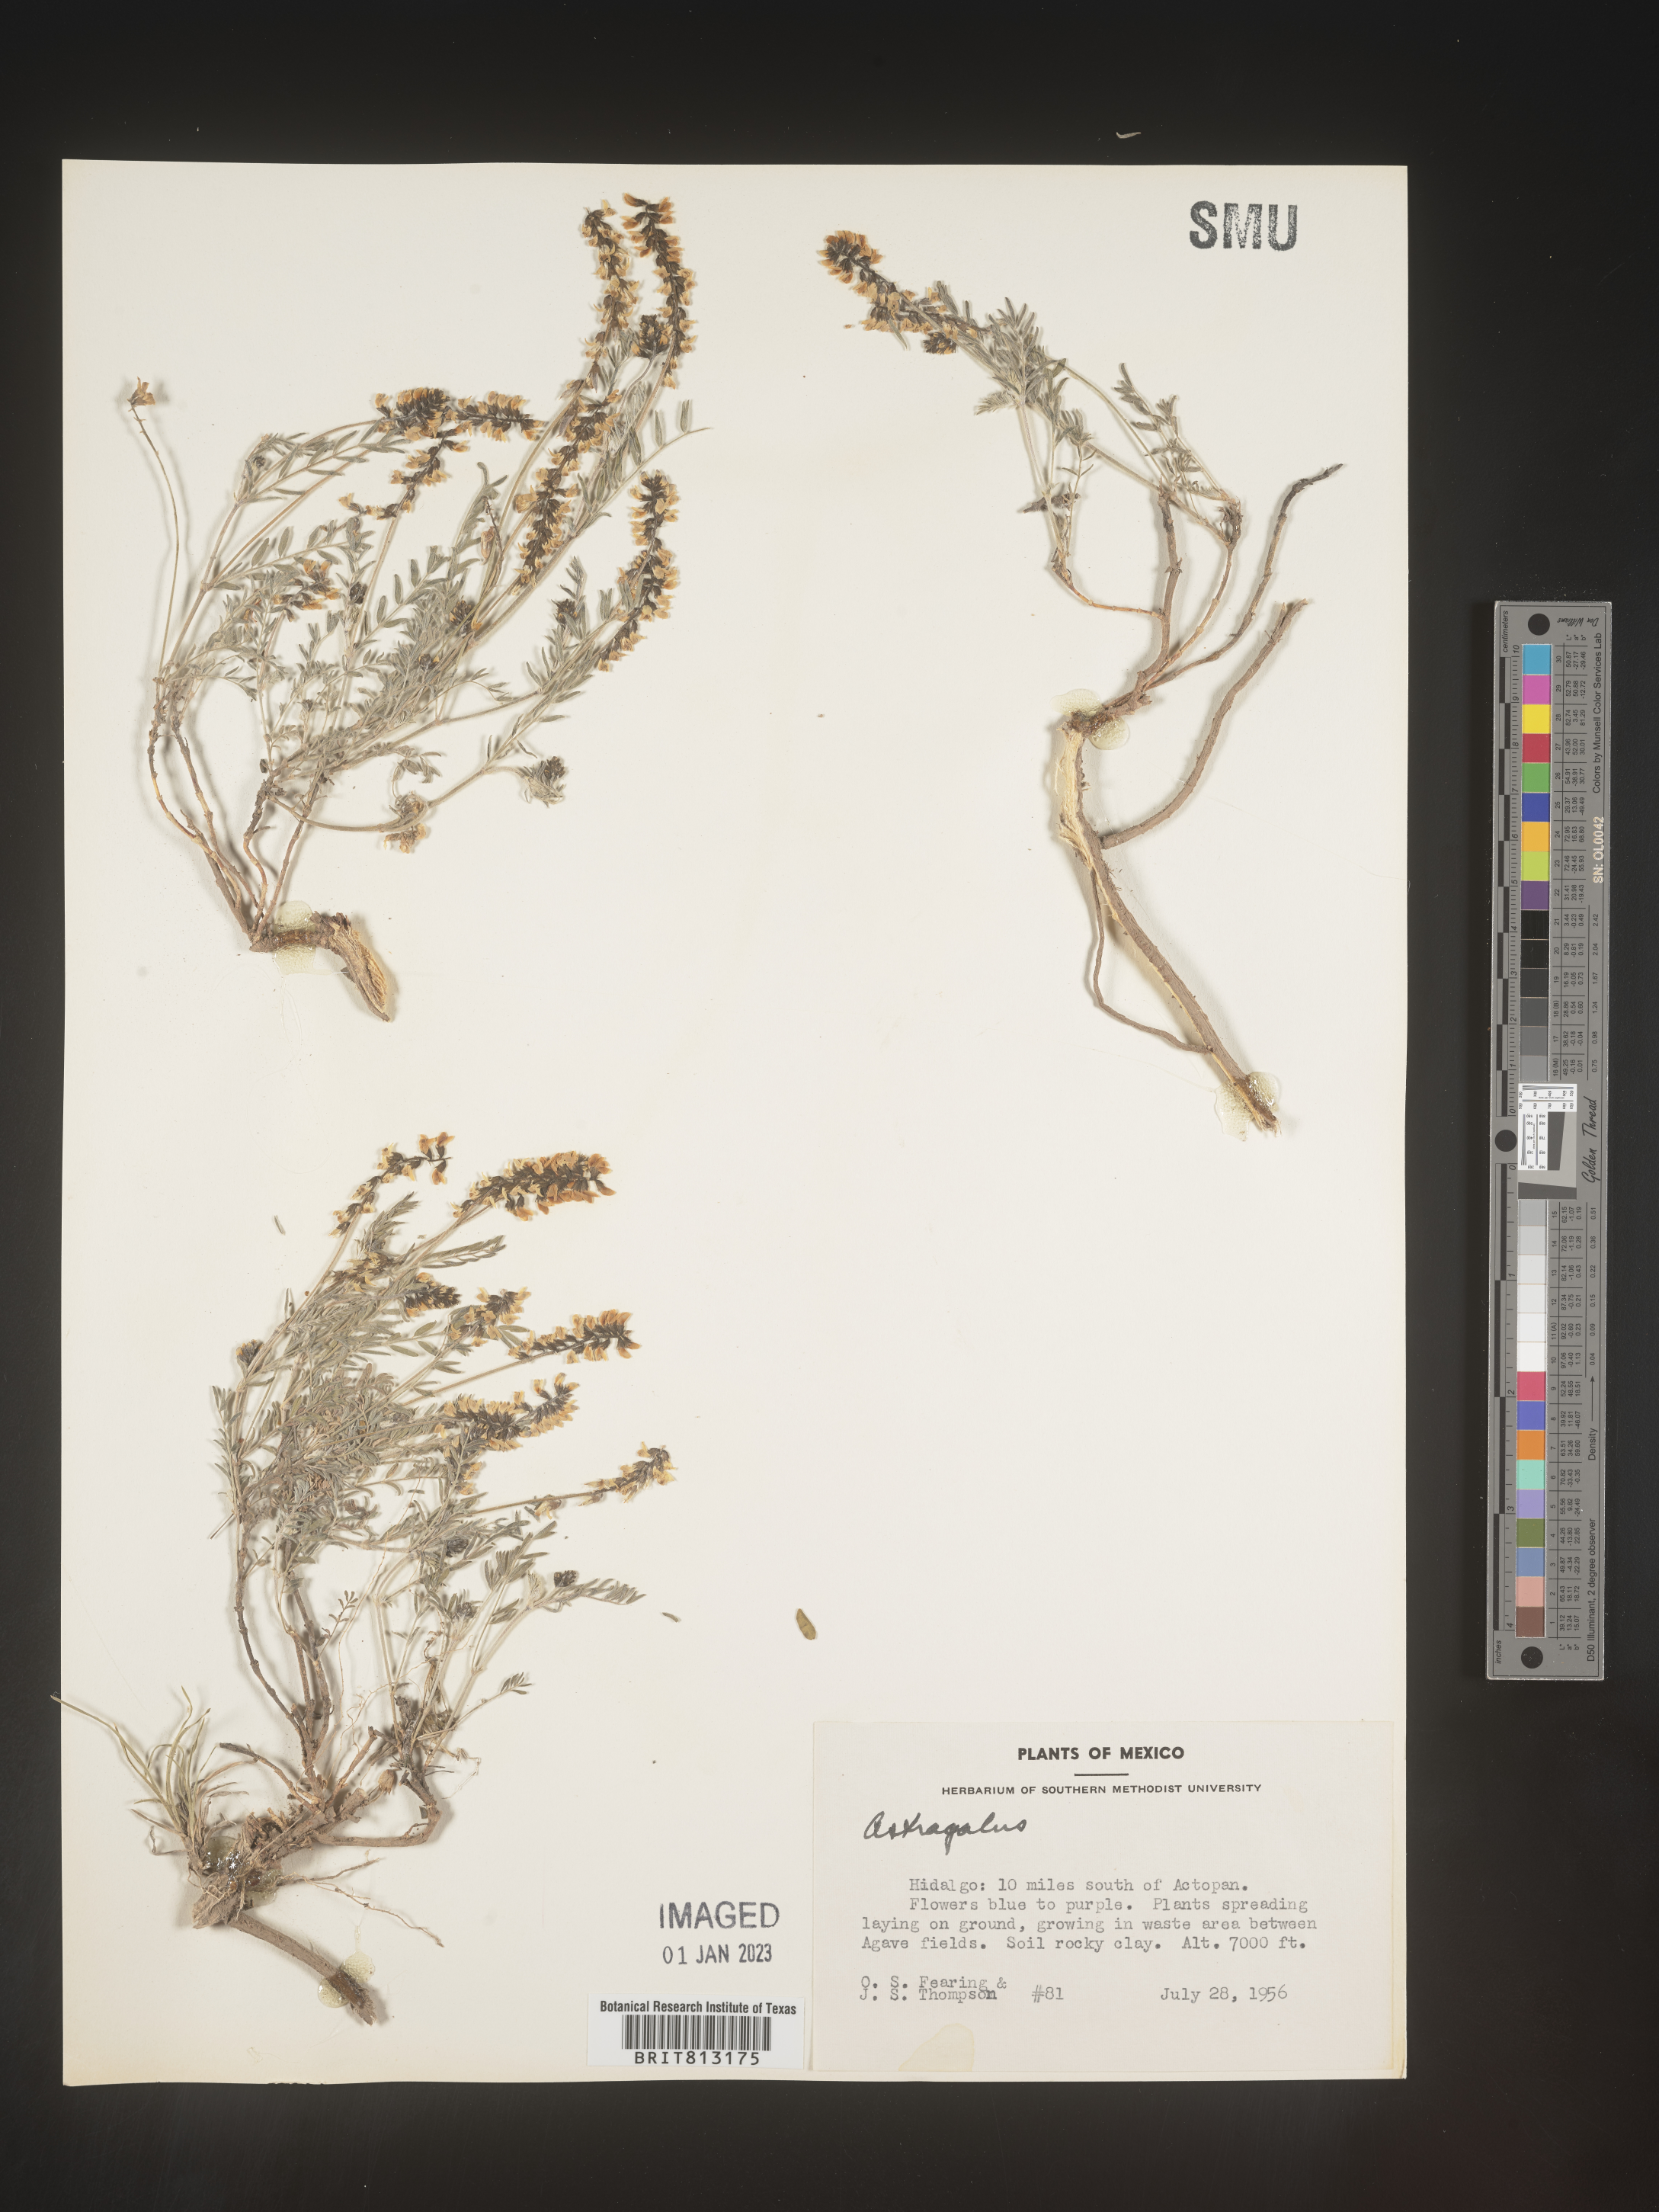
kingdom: Plantae
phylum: Tracheophyta
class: Magnoliopsida
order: Fabales
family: Fabaceae
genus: Astragalus
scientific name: Astragalus
